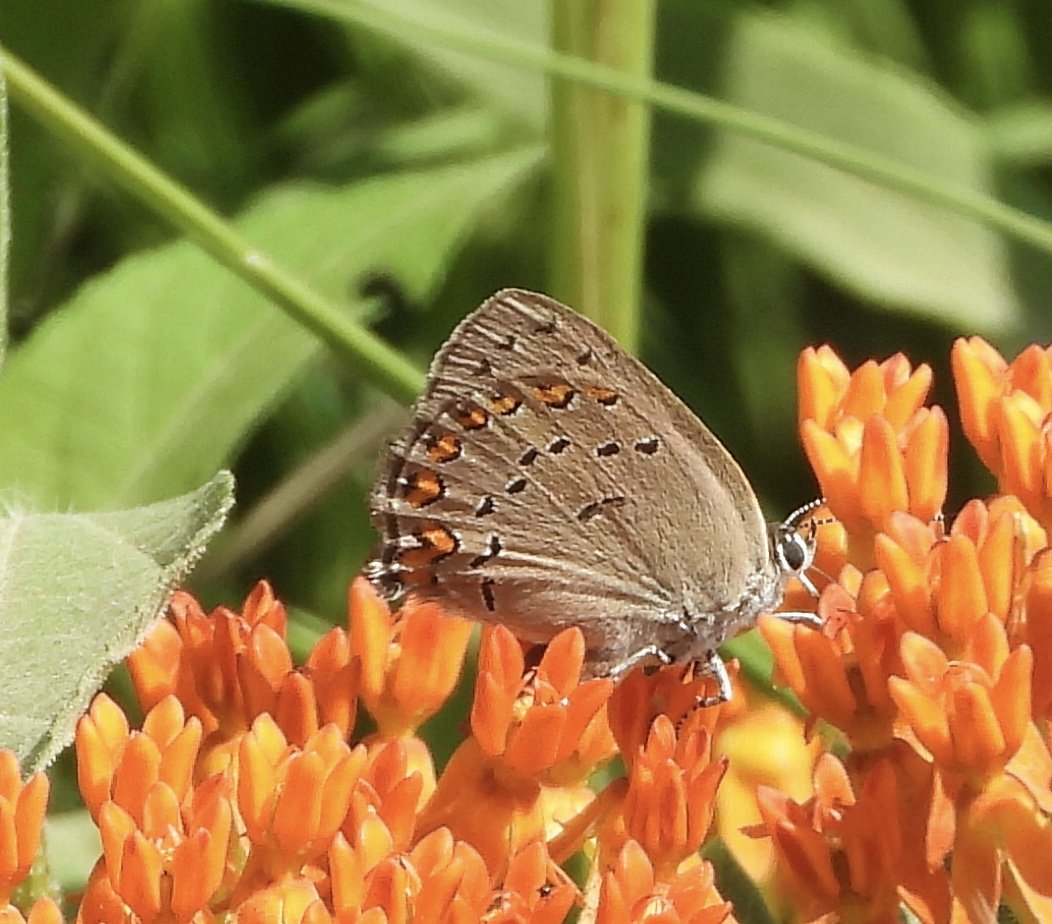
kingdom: Animalia
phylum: Arthropoda
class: Insecta
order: Lepidoptera
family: Lycaenidae
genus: Harkenclenus
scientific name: Harkenclenus titus
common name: Coral Hairstreak
